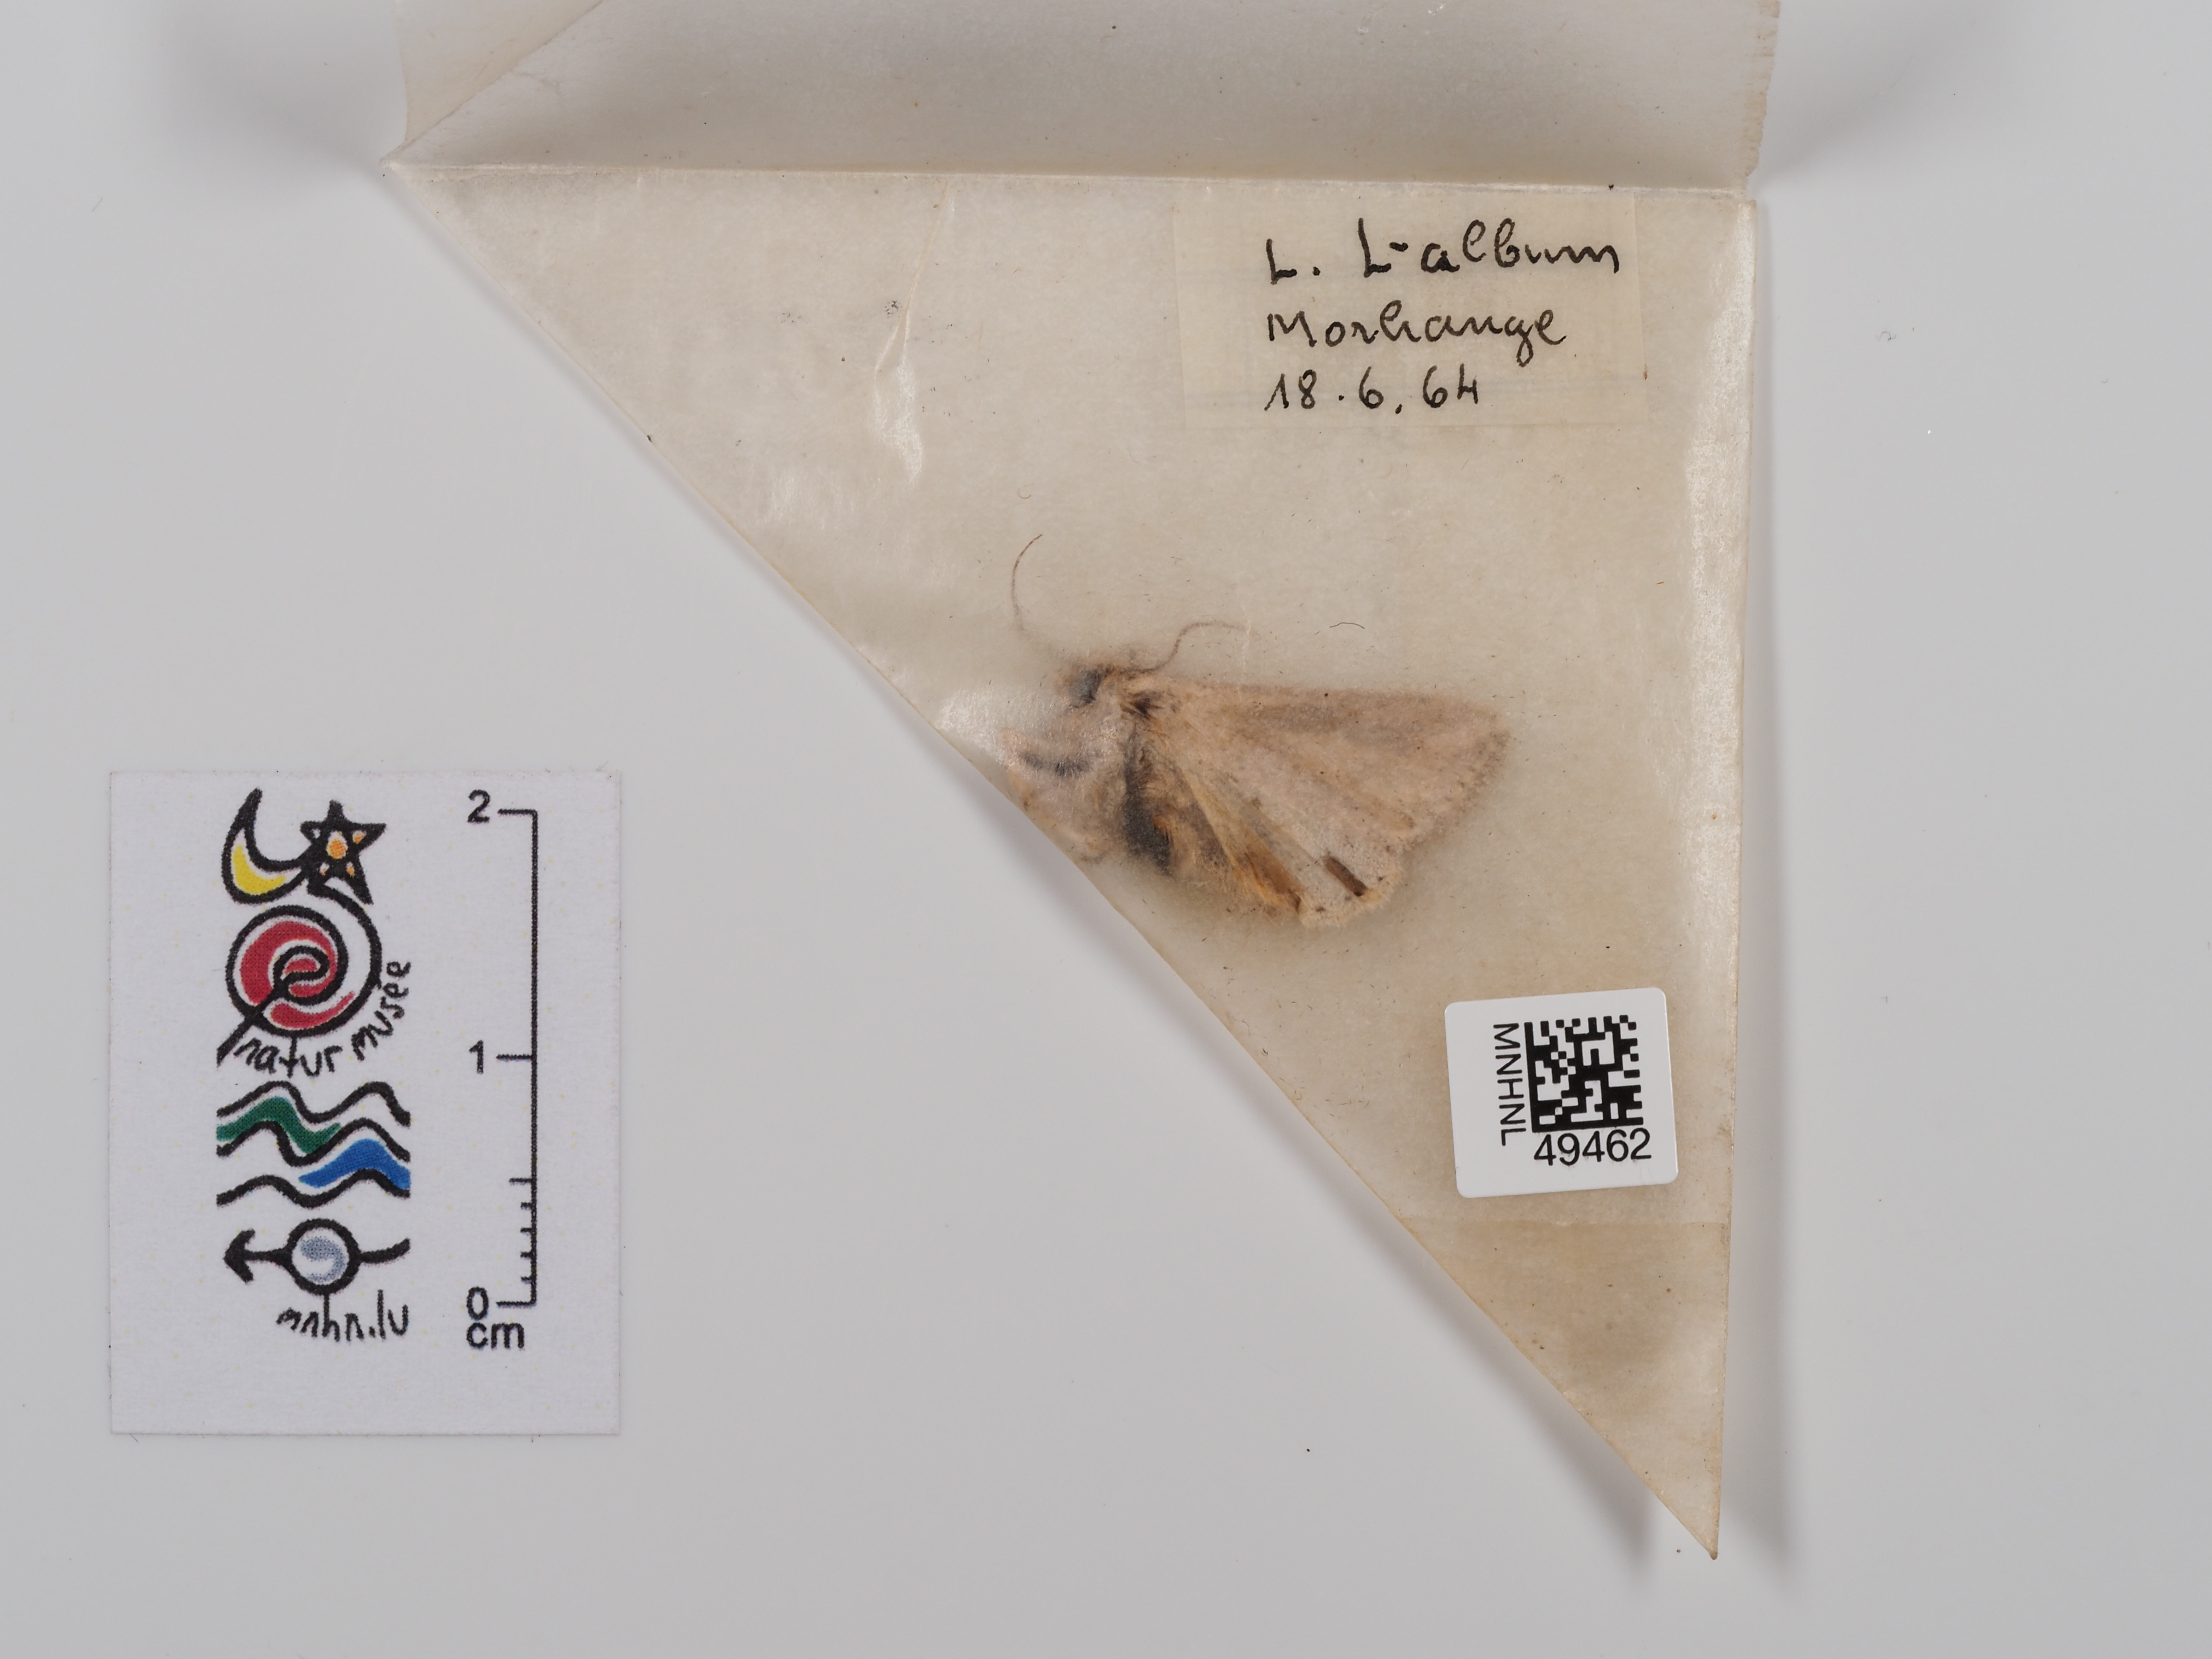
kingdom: Animalia
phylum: Arthropoda
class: Insecta
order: Lepidoptera
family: Noctuidae
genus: Mythimna
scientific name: Mythimna l-album
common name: L-album wainscot
